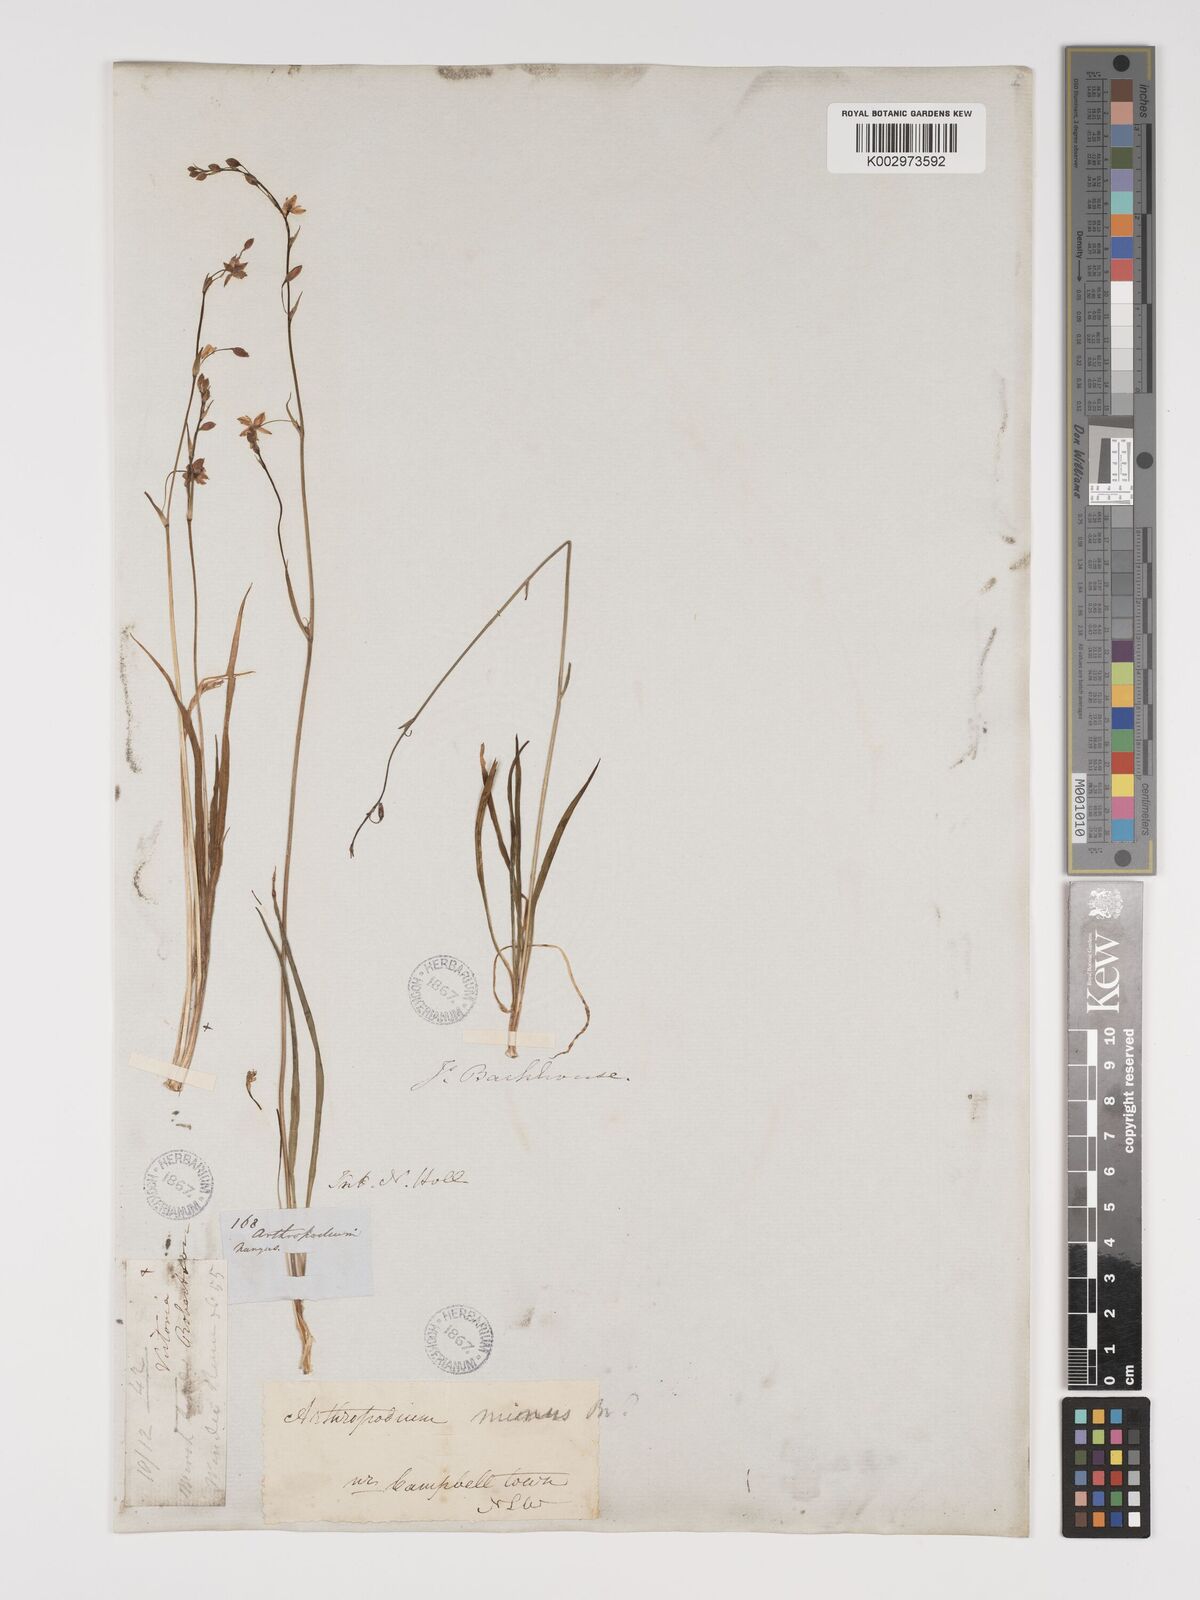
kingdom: Plantae
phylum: Tracheophyta
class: Liliopsida
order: Asparagales
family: Asparagaceae
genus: Arthropodium
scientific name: Arthropodium minus
